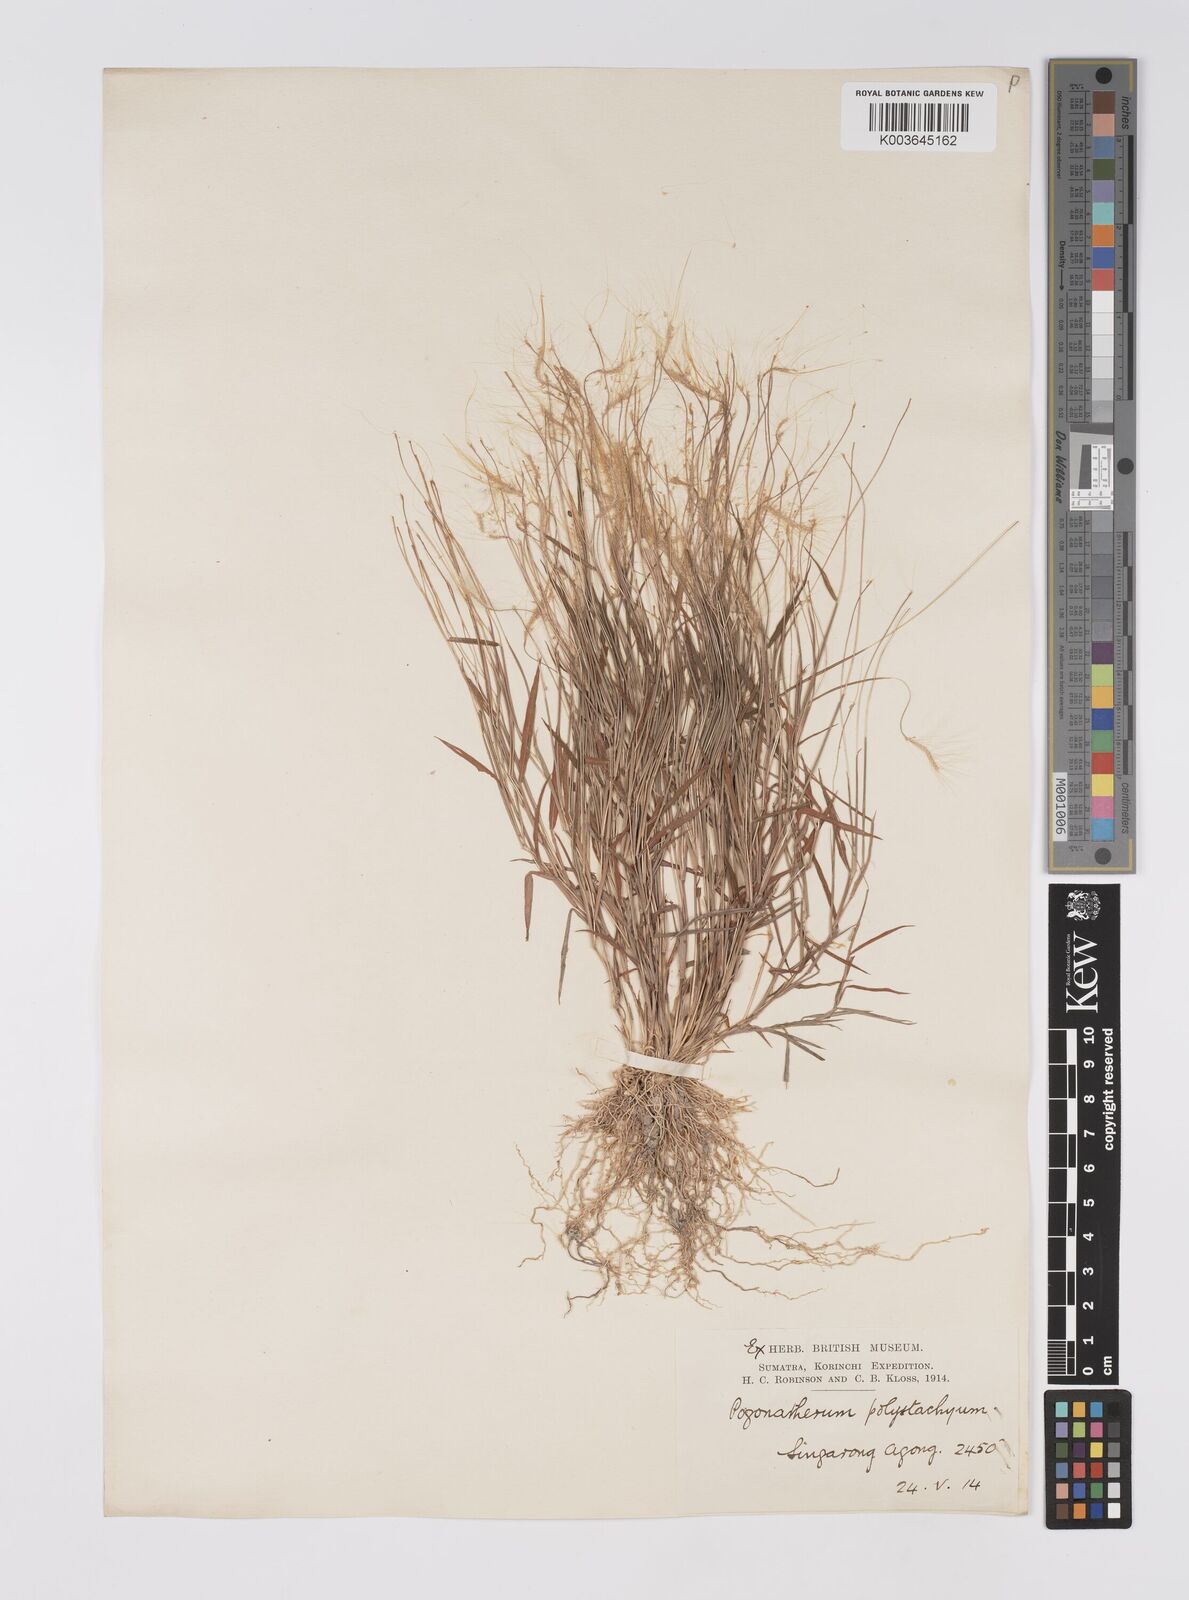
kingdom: Plantae
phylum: Tracheophyta
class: Liliopsida
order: Poales
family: Poaceae
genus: Pogonatherum
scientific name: Pogonatherum crinitum
